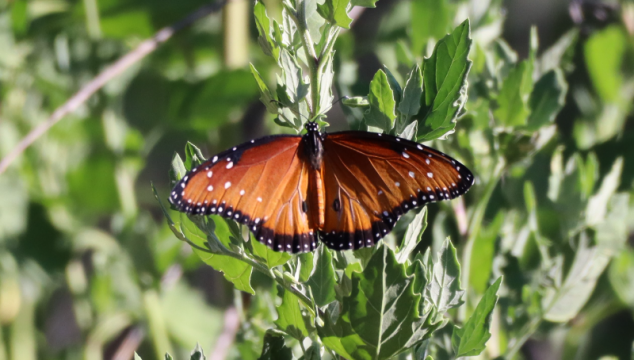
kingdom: Animalia
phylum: Arthropoda
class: Insecta
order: Lepidoptera
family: Nymphalidae
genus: Danaus
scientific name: Danaus gilippus
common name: Queen
